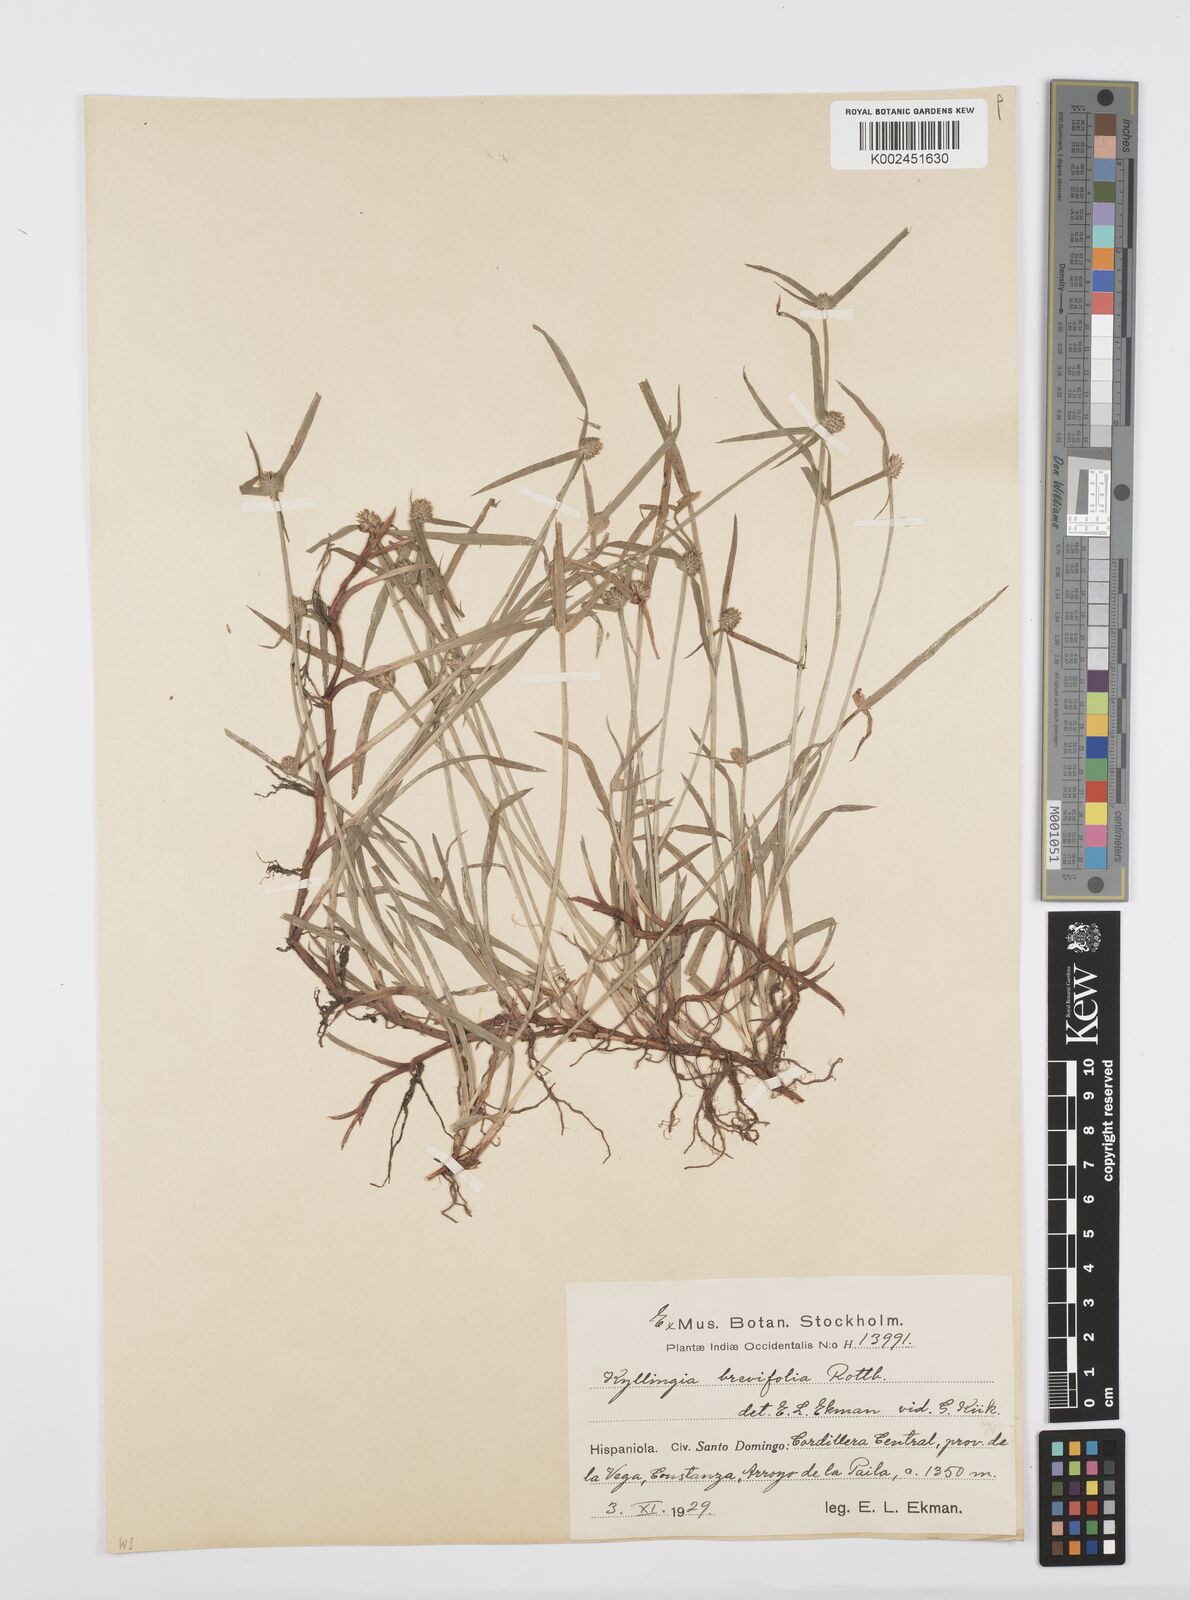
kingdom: Plantae
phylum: Tracheophyta
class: Liliopsida
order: Poales
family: Cyperaceae
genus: Cyperus
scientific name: Cyperus brevifolius
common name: Globe kyllinga
